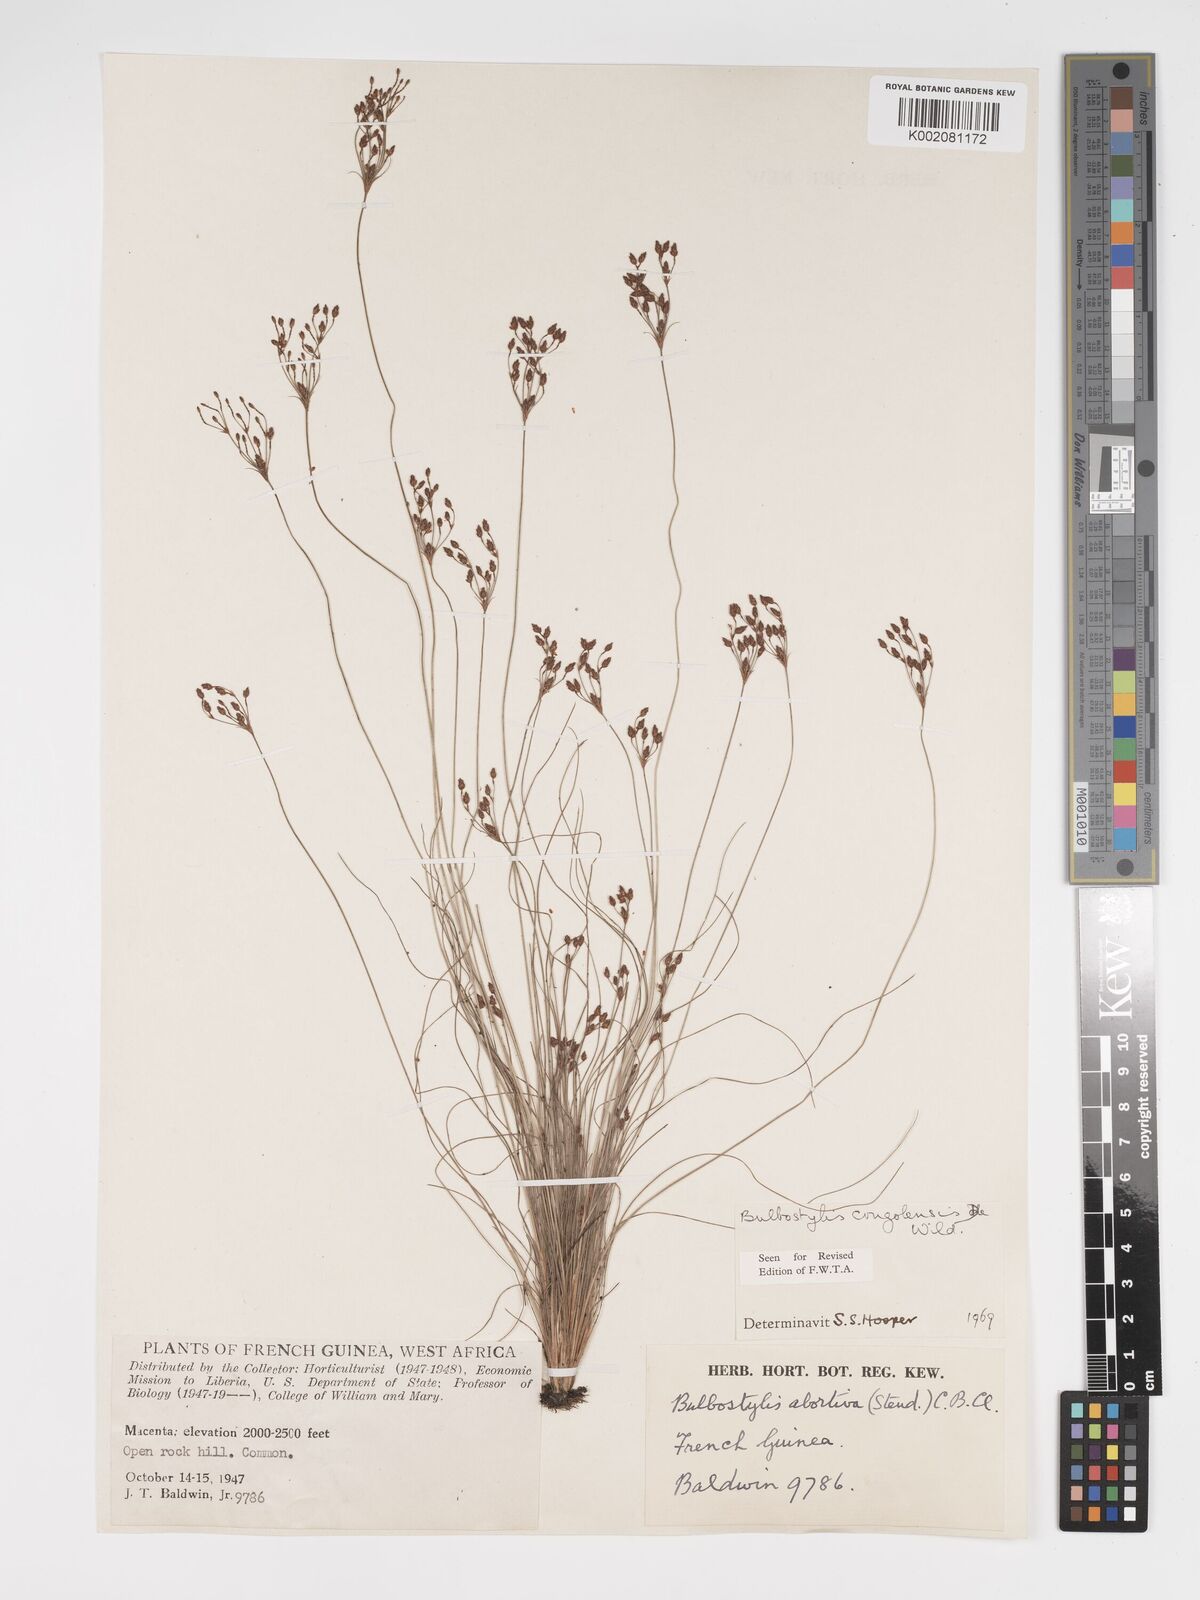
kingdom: Plantae
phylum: Tracheophyta
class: Liliopsida
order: Poales
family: Cyperaceae
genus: Bulbostylis
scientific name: Bulbostylis congolensis
